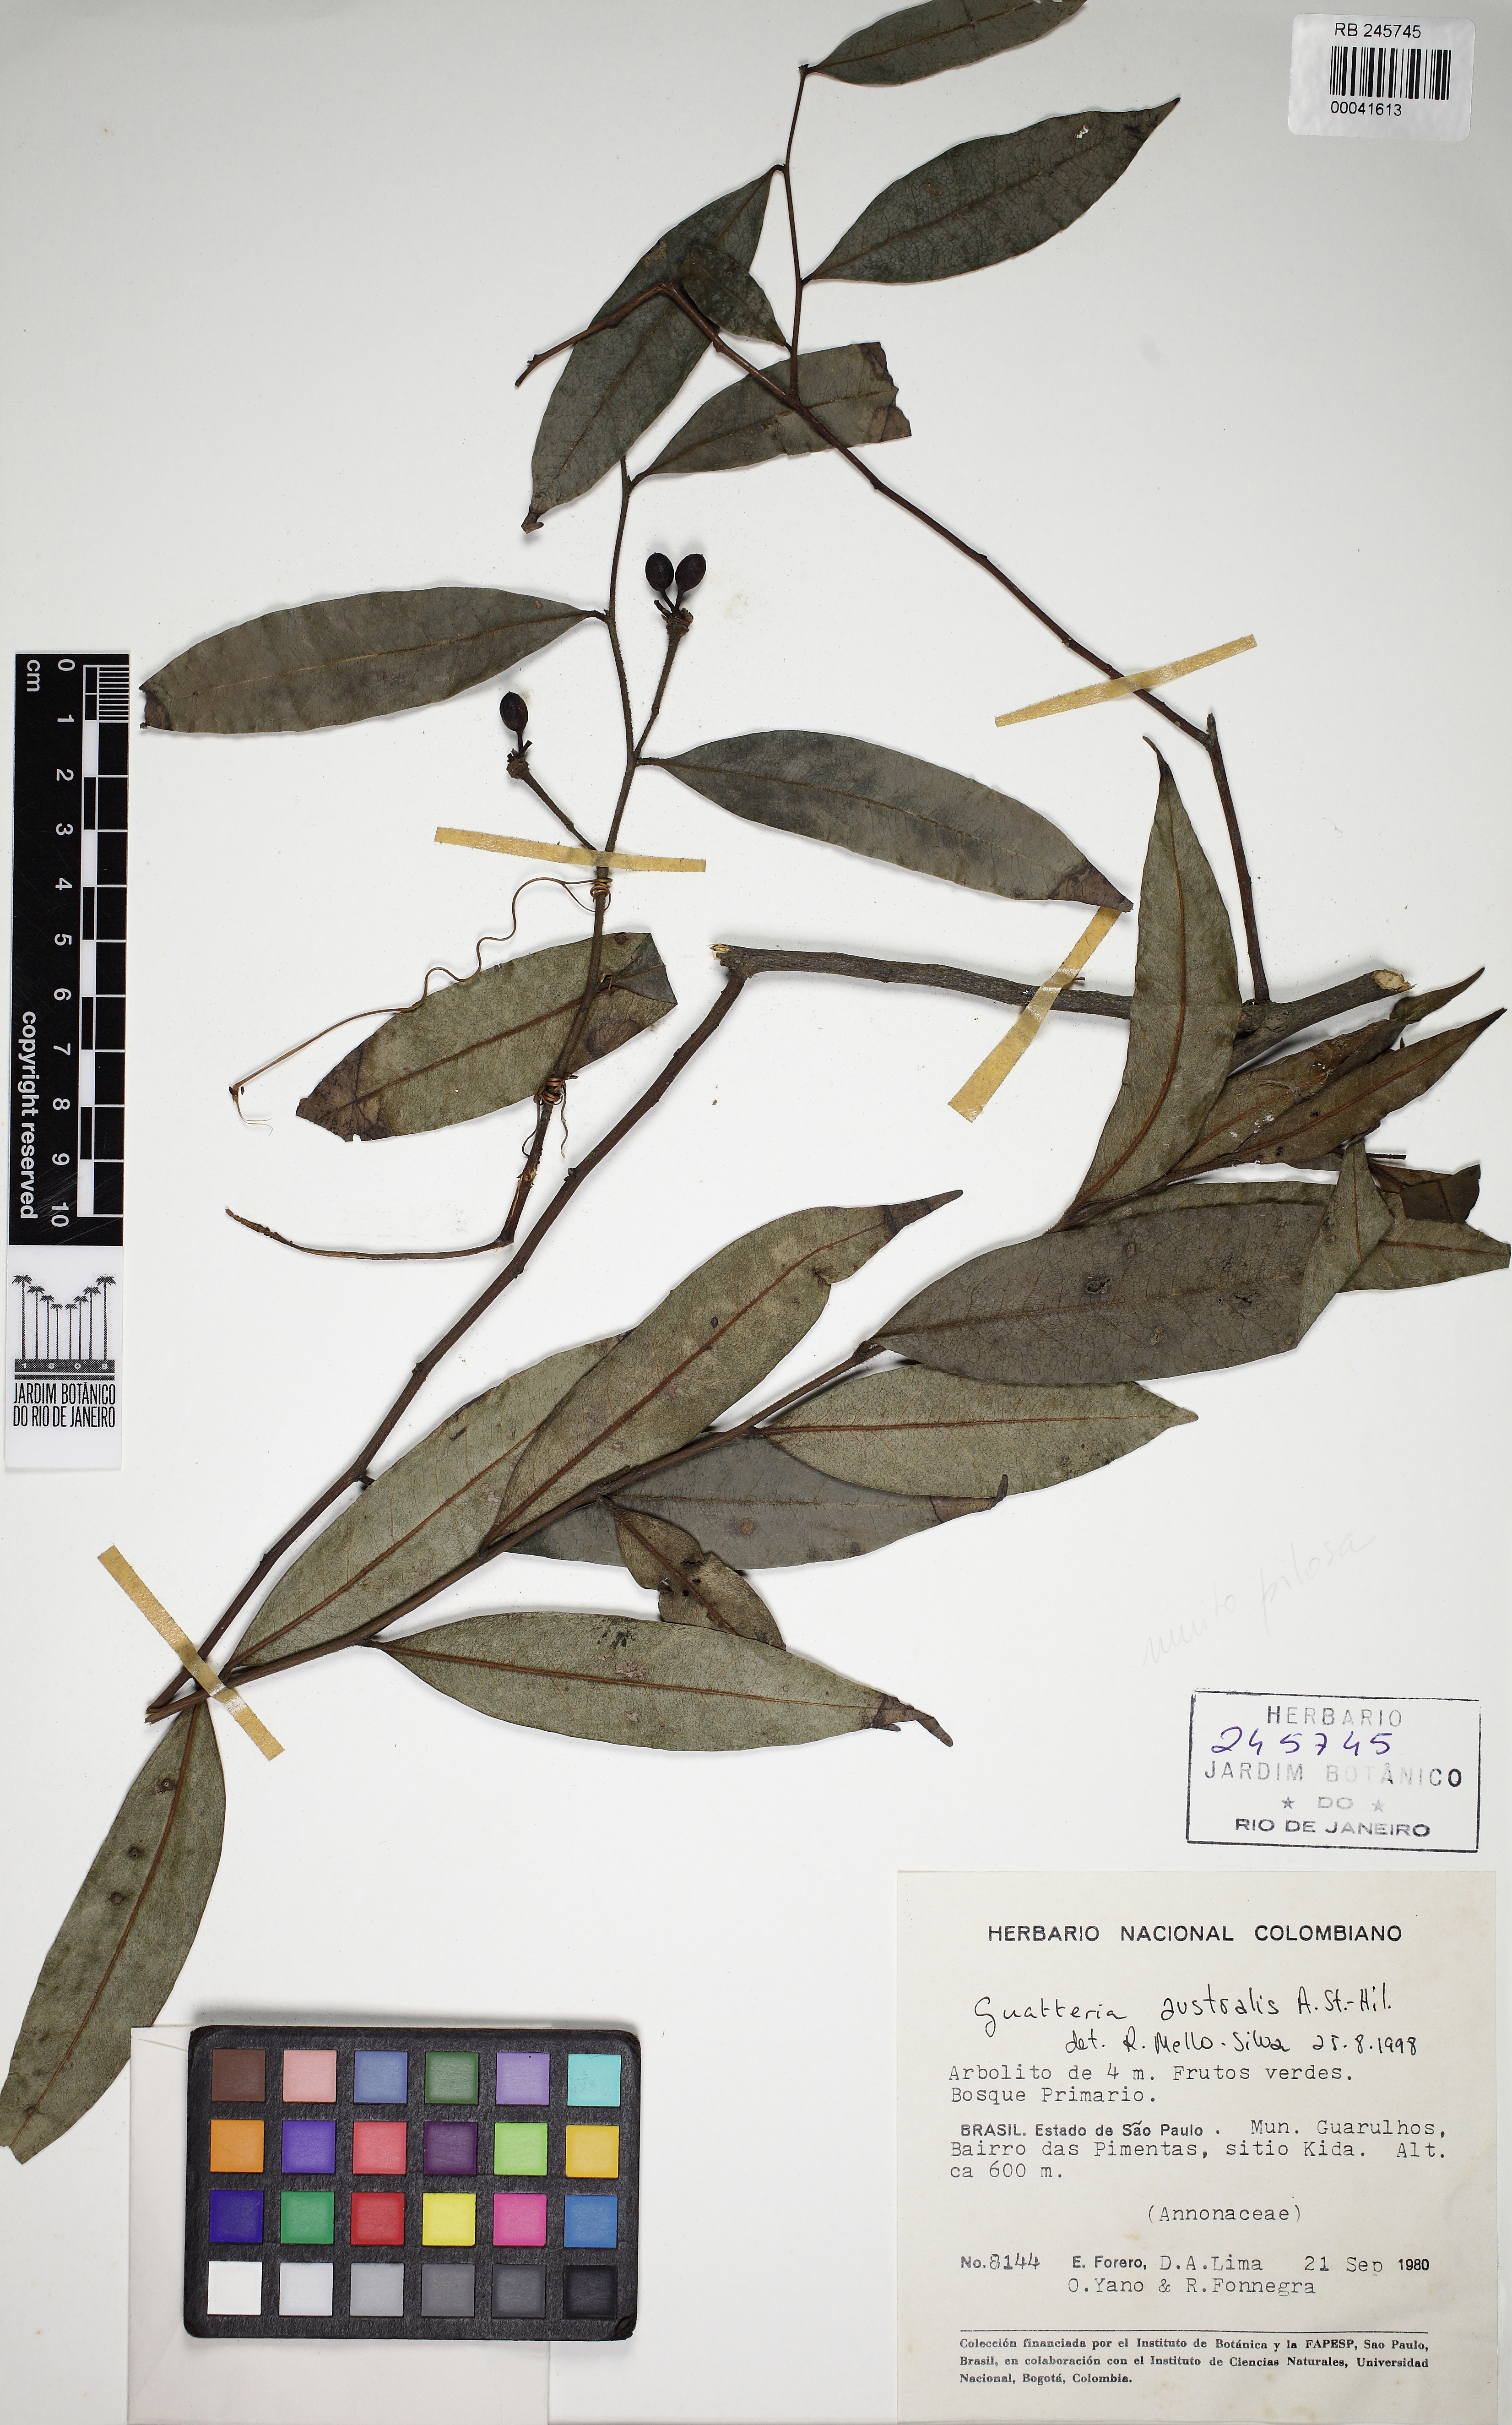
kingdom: Plantae
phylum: Tracheophyta
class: Magnoliopsida
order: Magnoliales
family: Annonaceae
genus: Guatteria
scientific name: Guatteria australis
